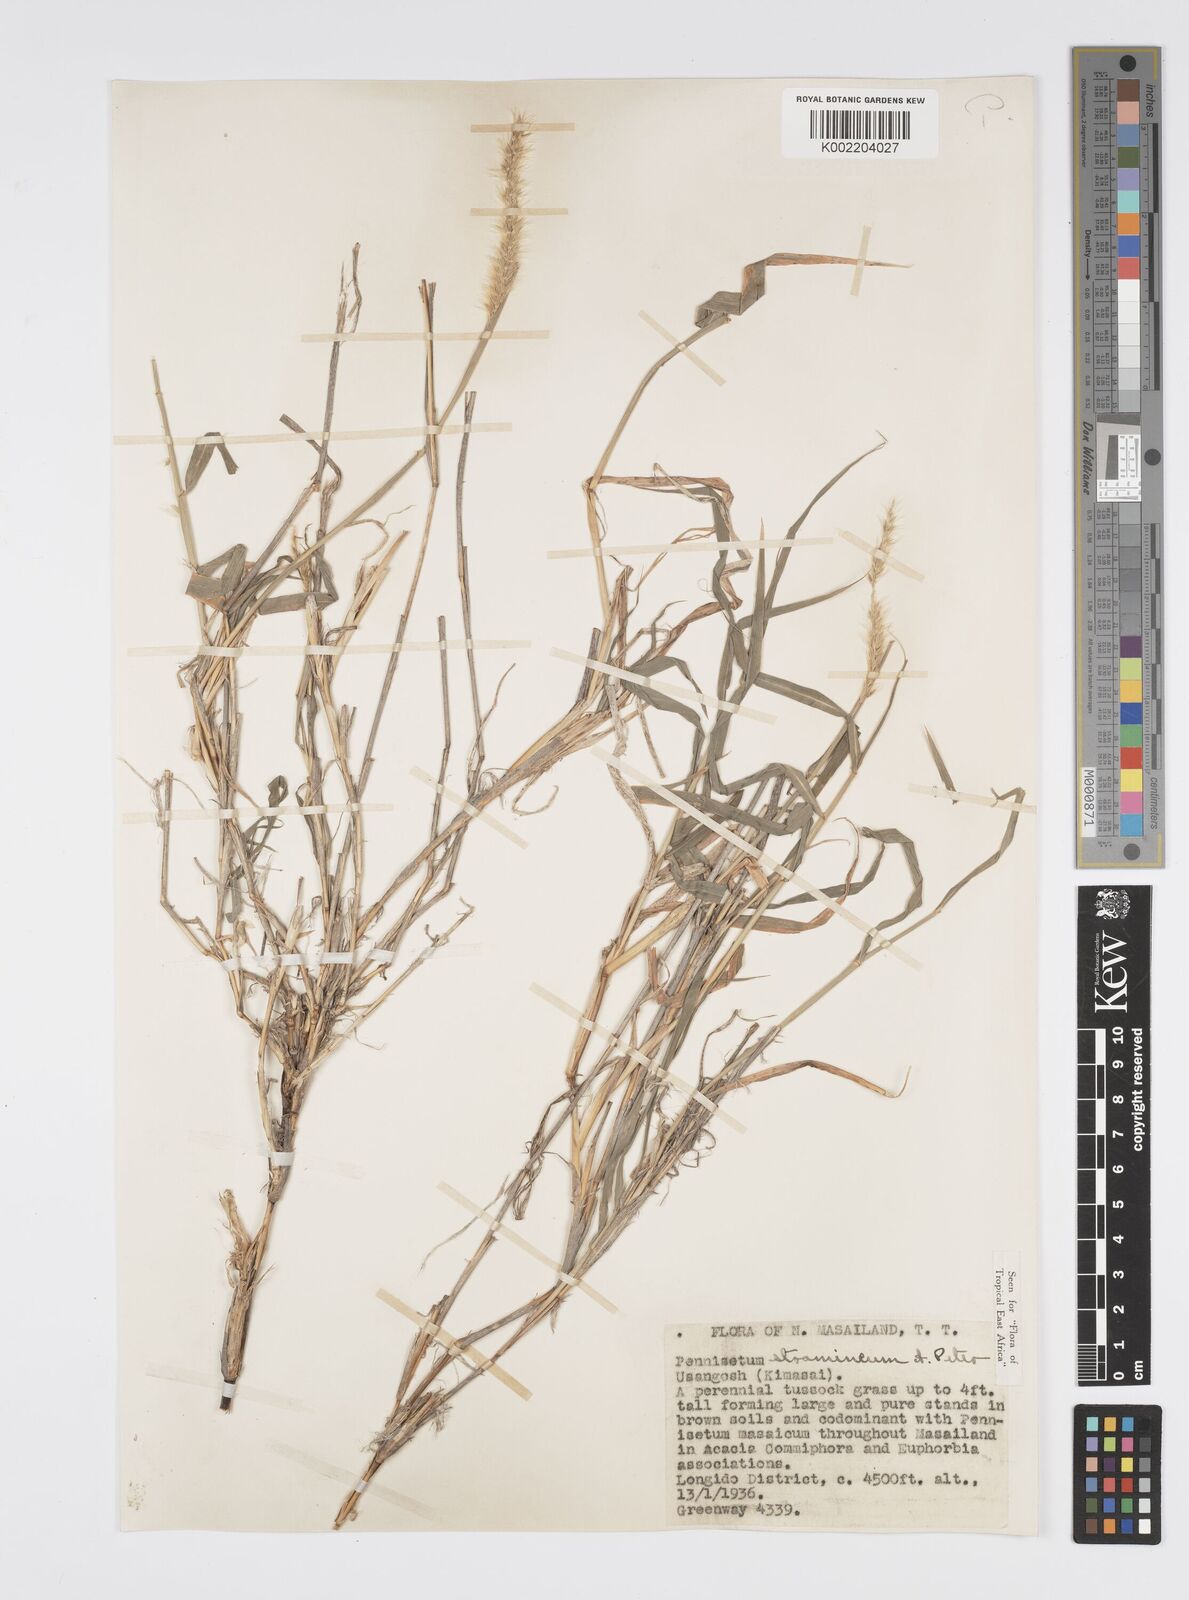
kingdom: Plantae
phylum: Tracheophyta
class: Liliopsida
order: Poales
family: Poaceae
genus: Cenchrus
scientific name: Cenchrus stramineus
